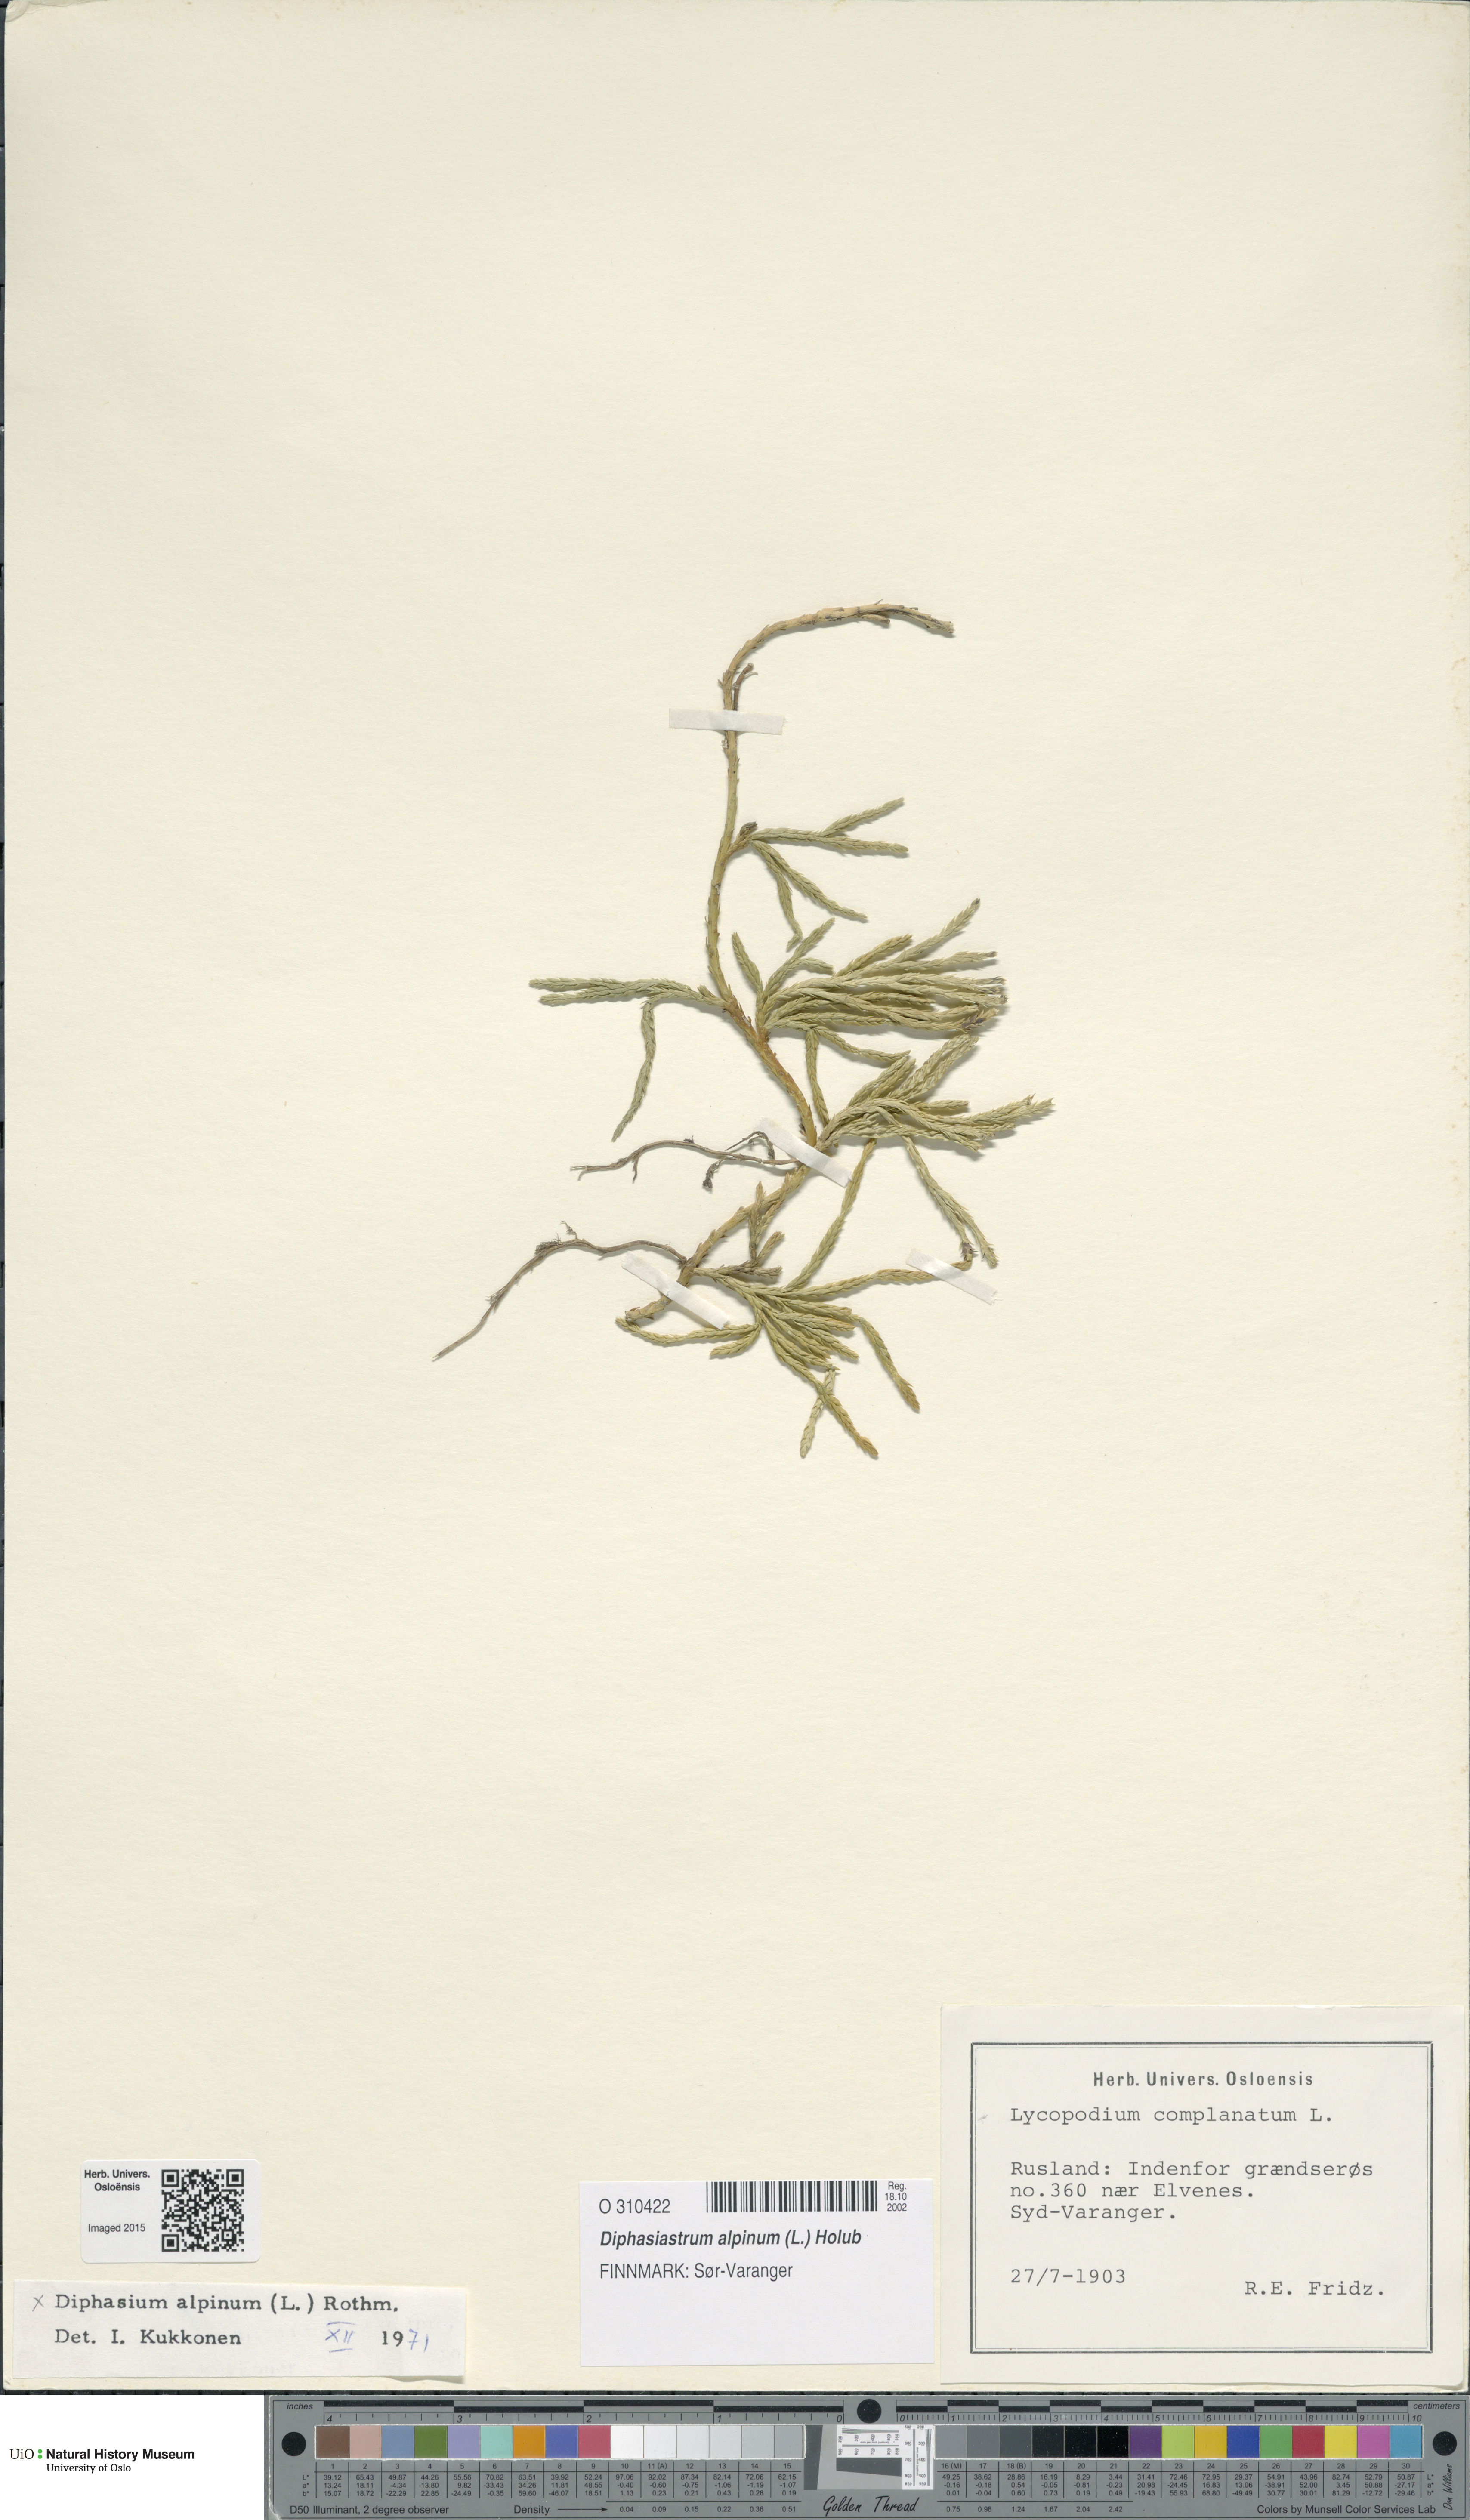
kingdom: Plantae
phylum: Tracheophyta
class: Lycopodiopsida
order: Lycopodiales
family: Lycopodiaceae
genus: Diphasiastrum
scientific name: Diphasiastrum alpinum
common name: Alpine clubmoss
